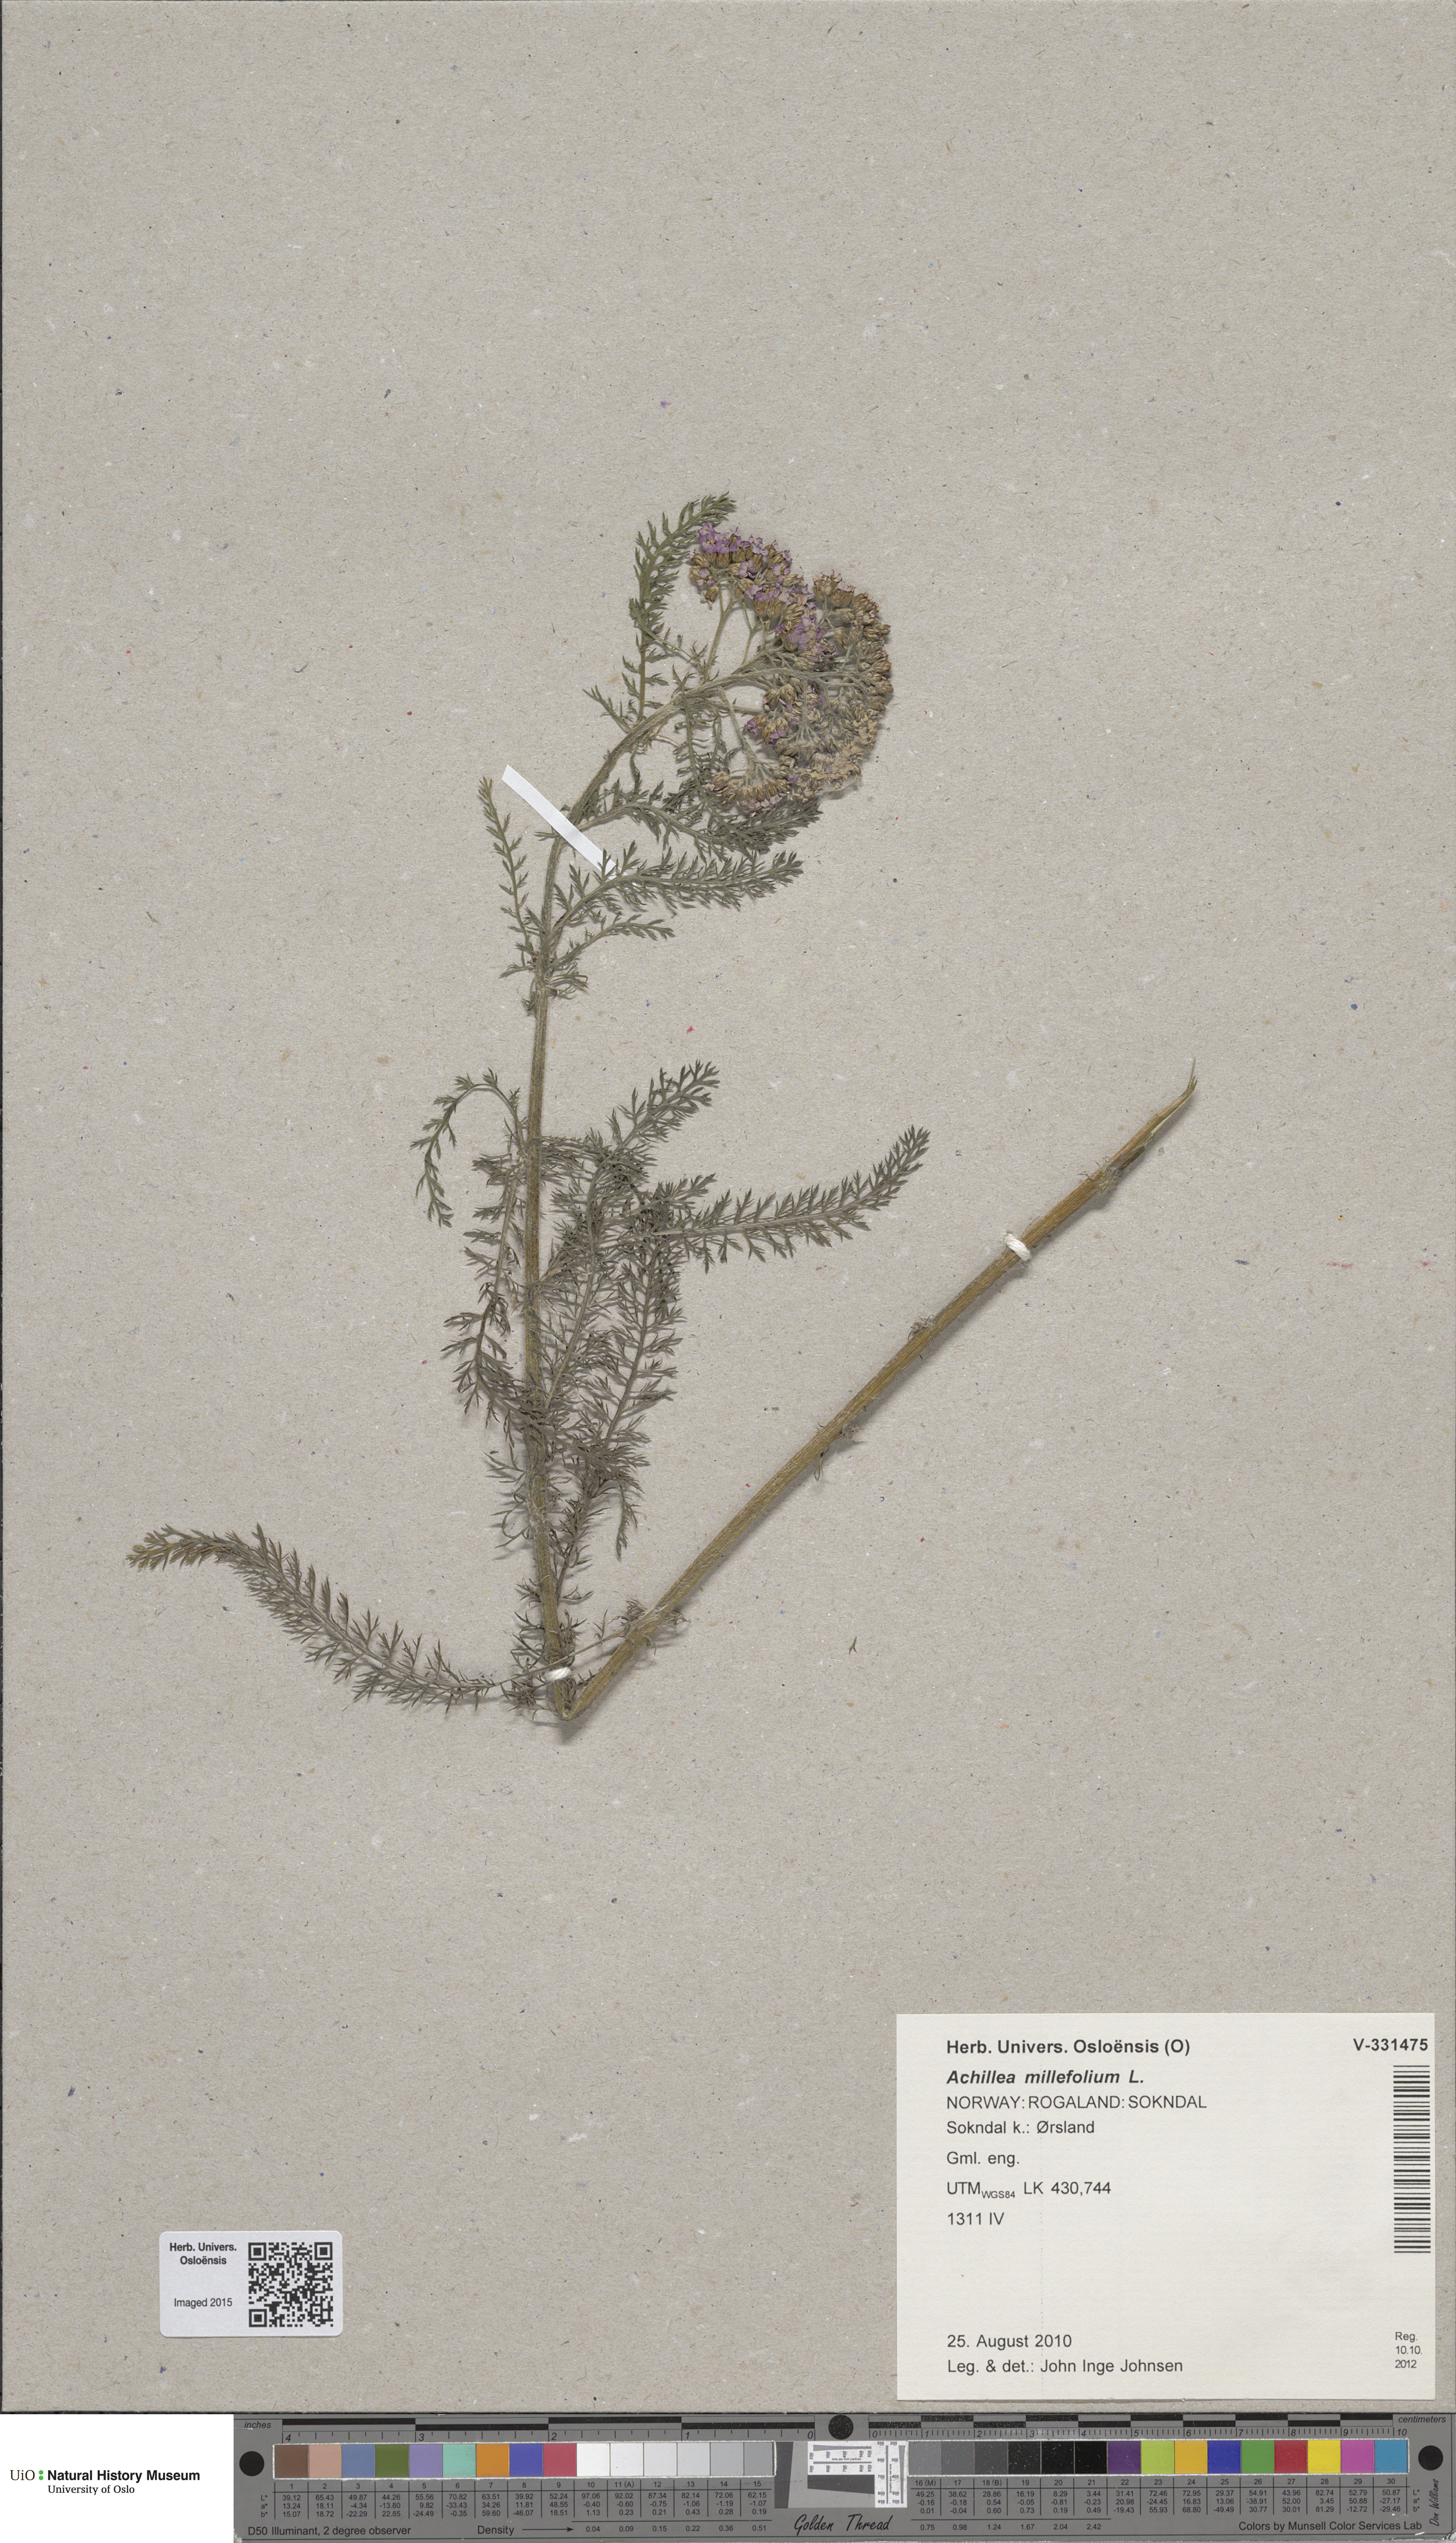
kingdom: Plantae
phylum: Tracheophyta
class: Magnoliopsida
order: Asterales
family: Asteraceae
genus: Achillea
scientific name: Achillea millefolium
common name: Yarrow
